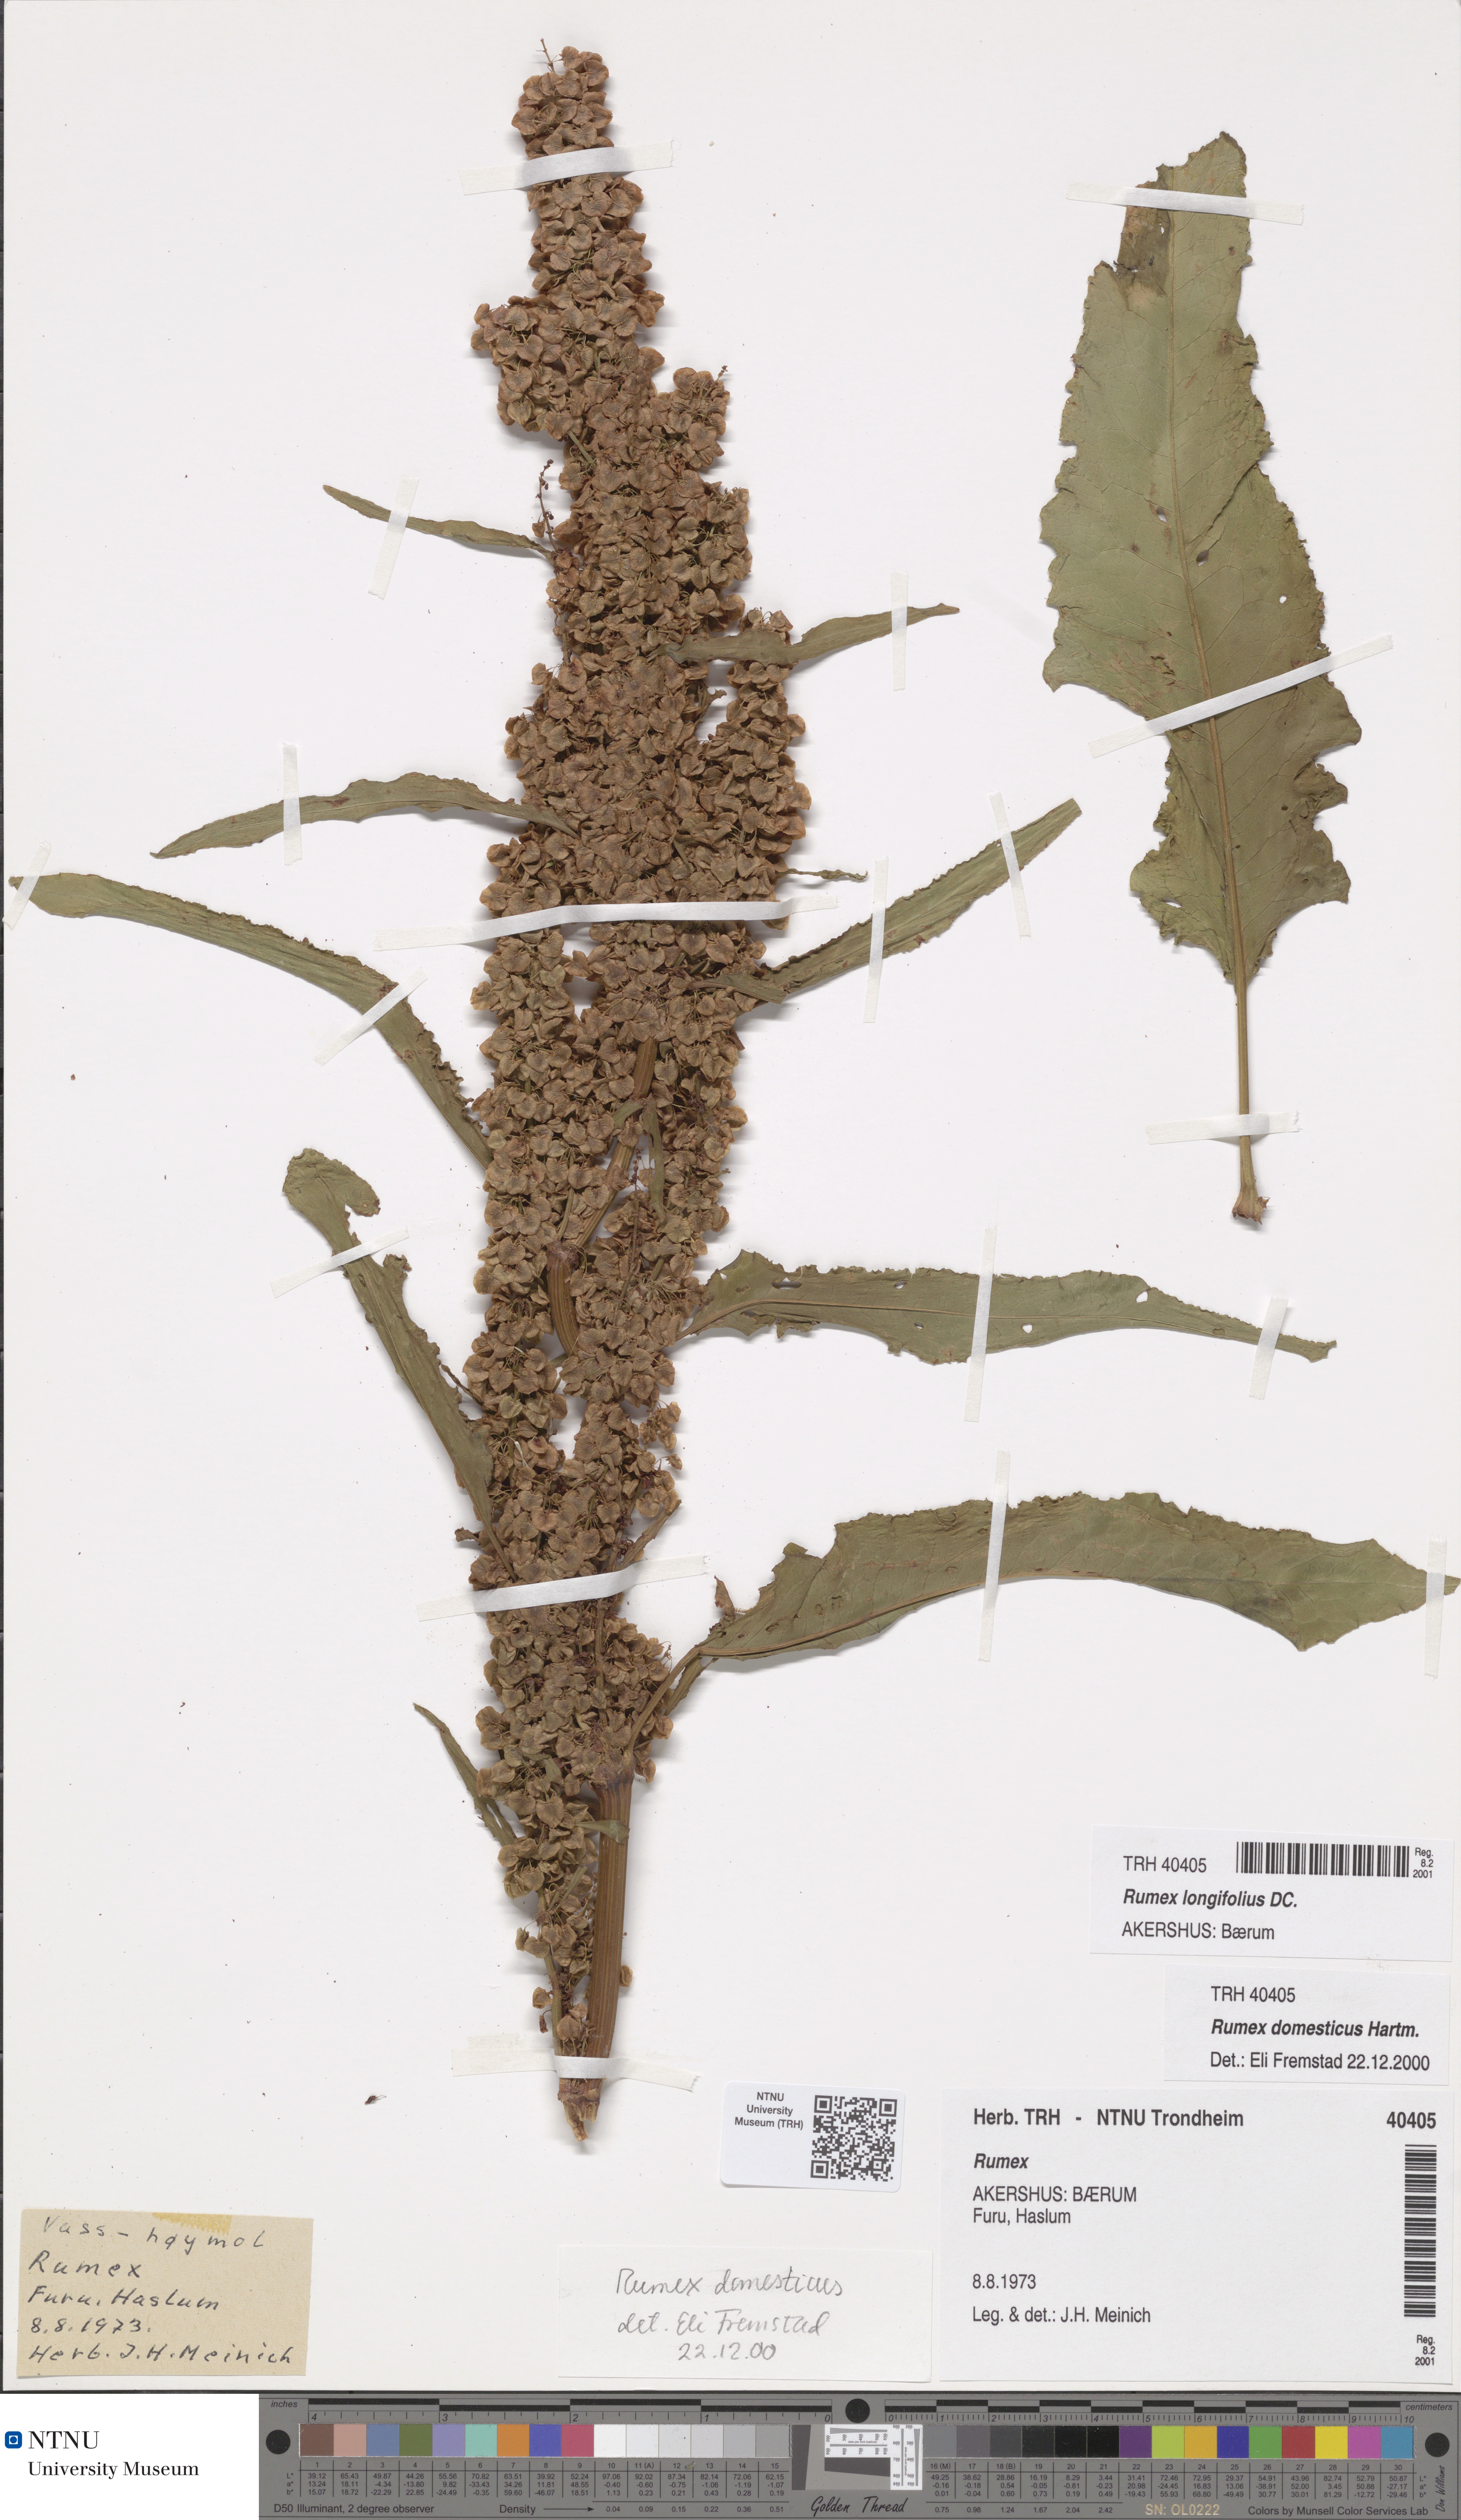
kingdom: Plantae
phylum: Tracheophyta
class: Magnoliopsida
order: Caryophyllales
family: Polygonaceae
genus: Rumex
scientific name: Rumex longifolius
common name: Dooryard dock
